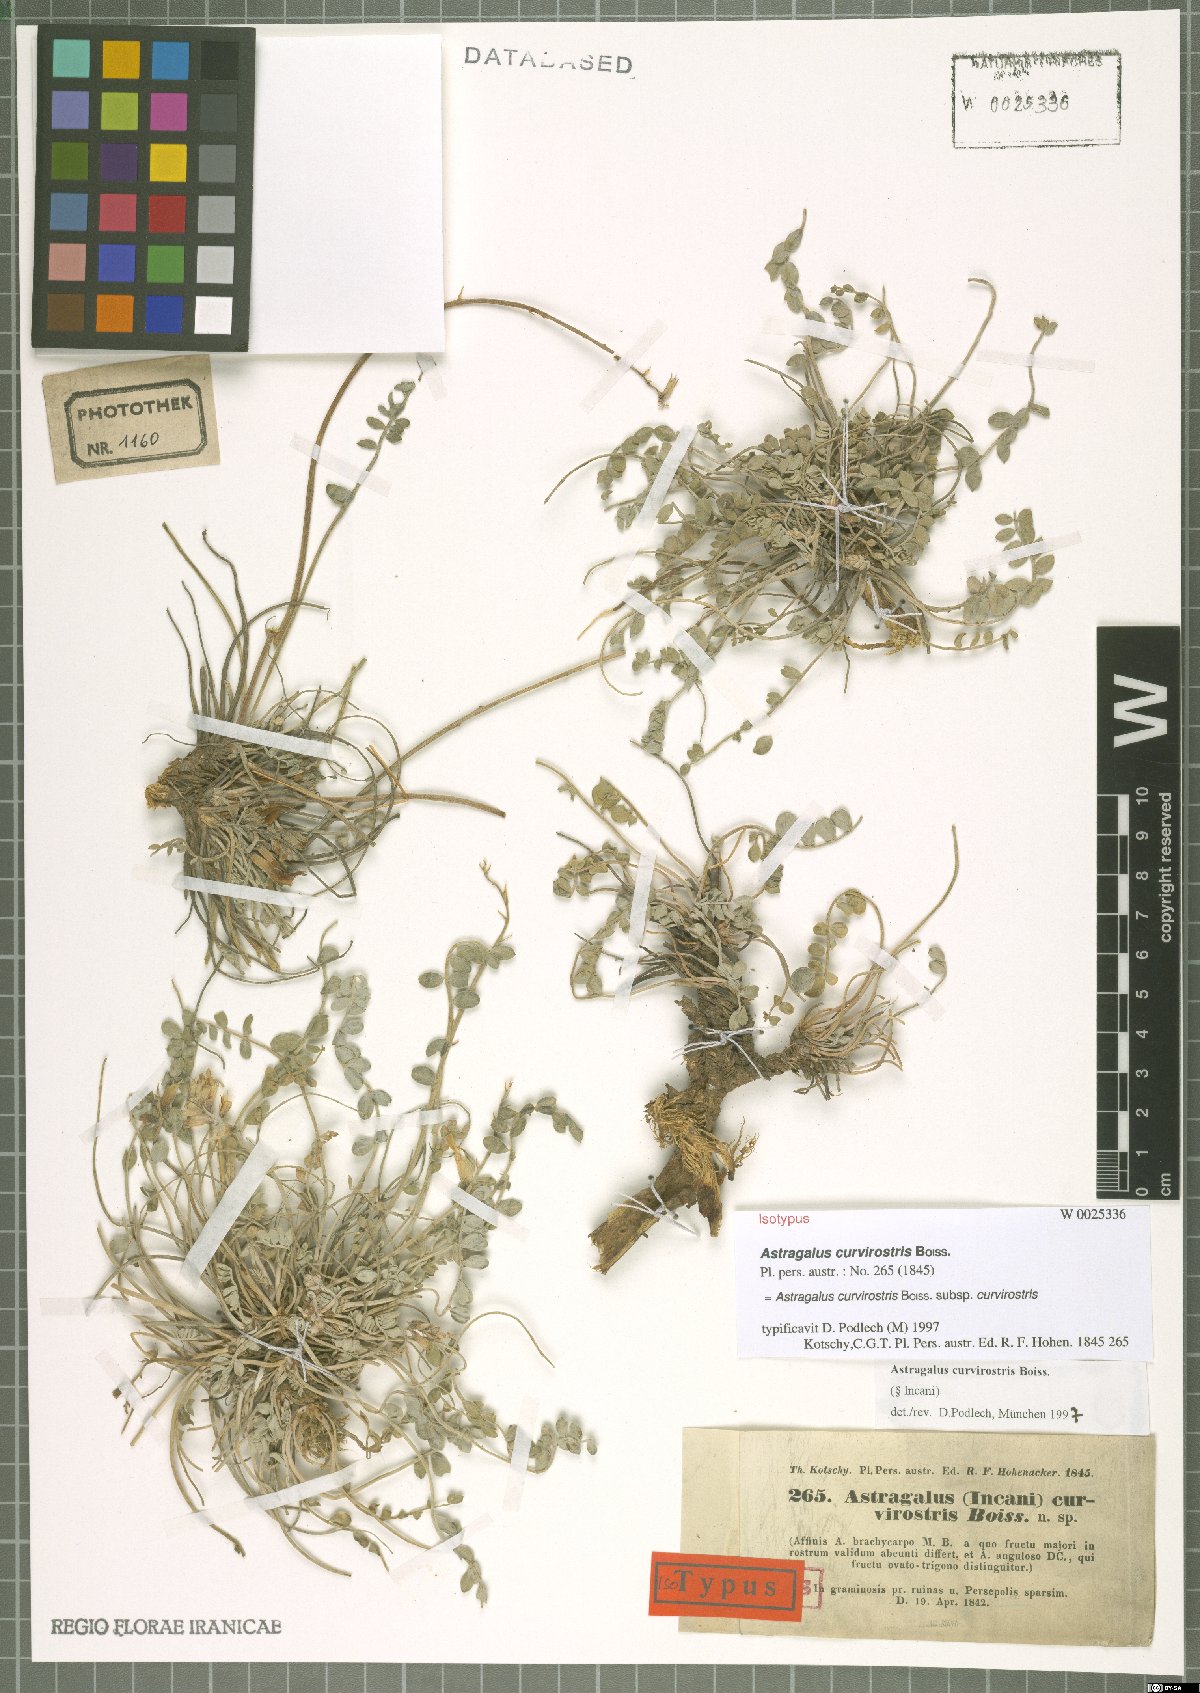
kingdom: Plantae
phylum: Tracheophyta
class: Magnoliopsida
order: Fabales
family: Fabaceae
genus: Astragalus
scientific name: Astragalus curvirostris
